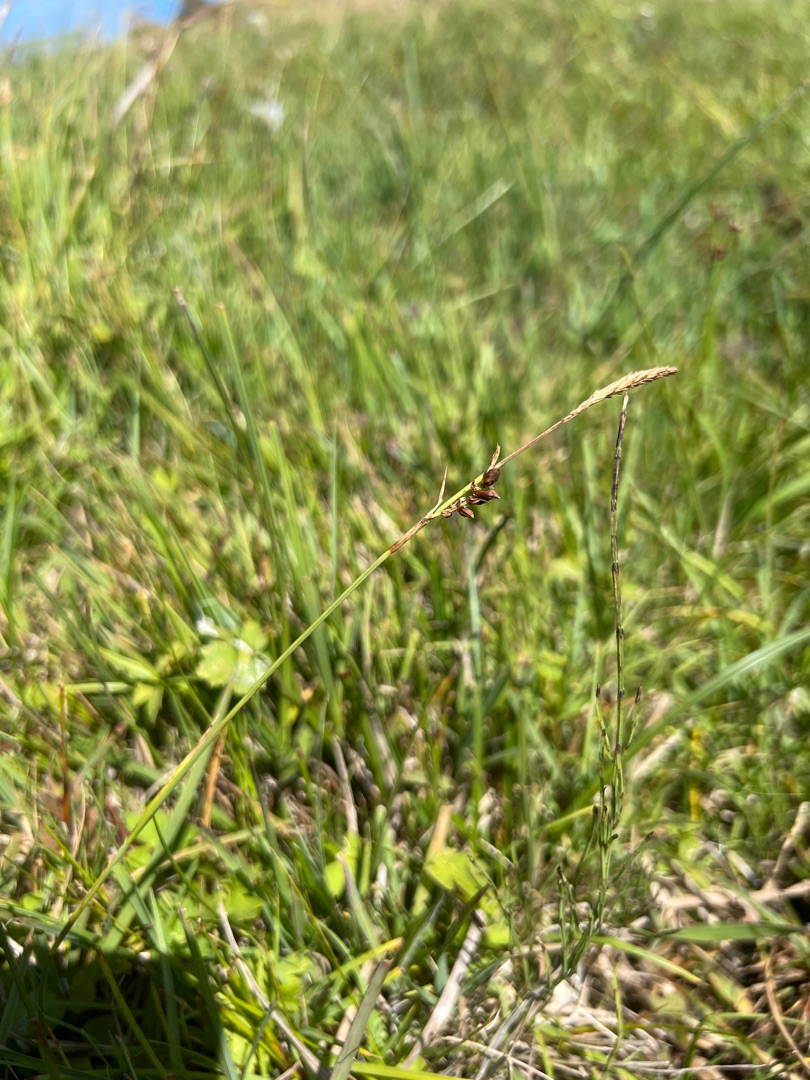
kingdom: Plantae
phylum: Tracheophyta
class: Liliopsida
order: Poales
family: Cyperaceae
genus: Carex
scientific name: Carex panicea
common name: Hirse-star
